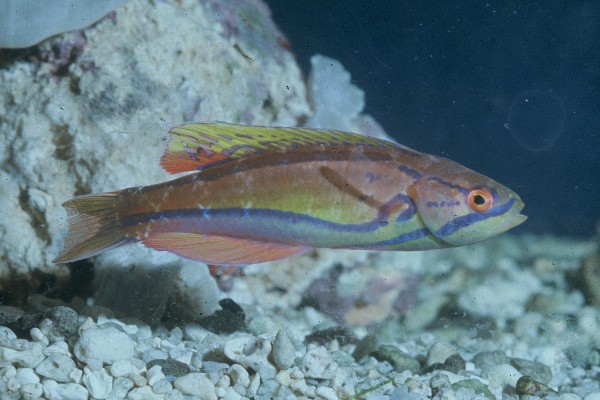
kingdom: Animalia
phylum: Chordata
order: Perciformes
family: Labridae
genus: Paracheilinus
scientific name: Paracheilinus piscilineatus
